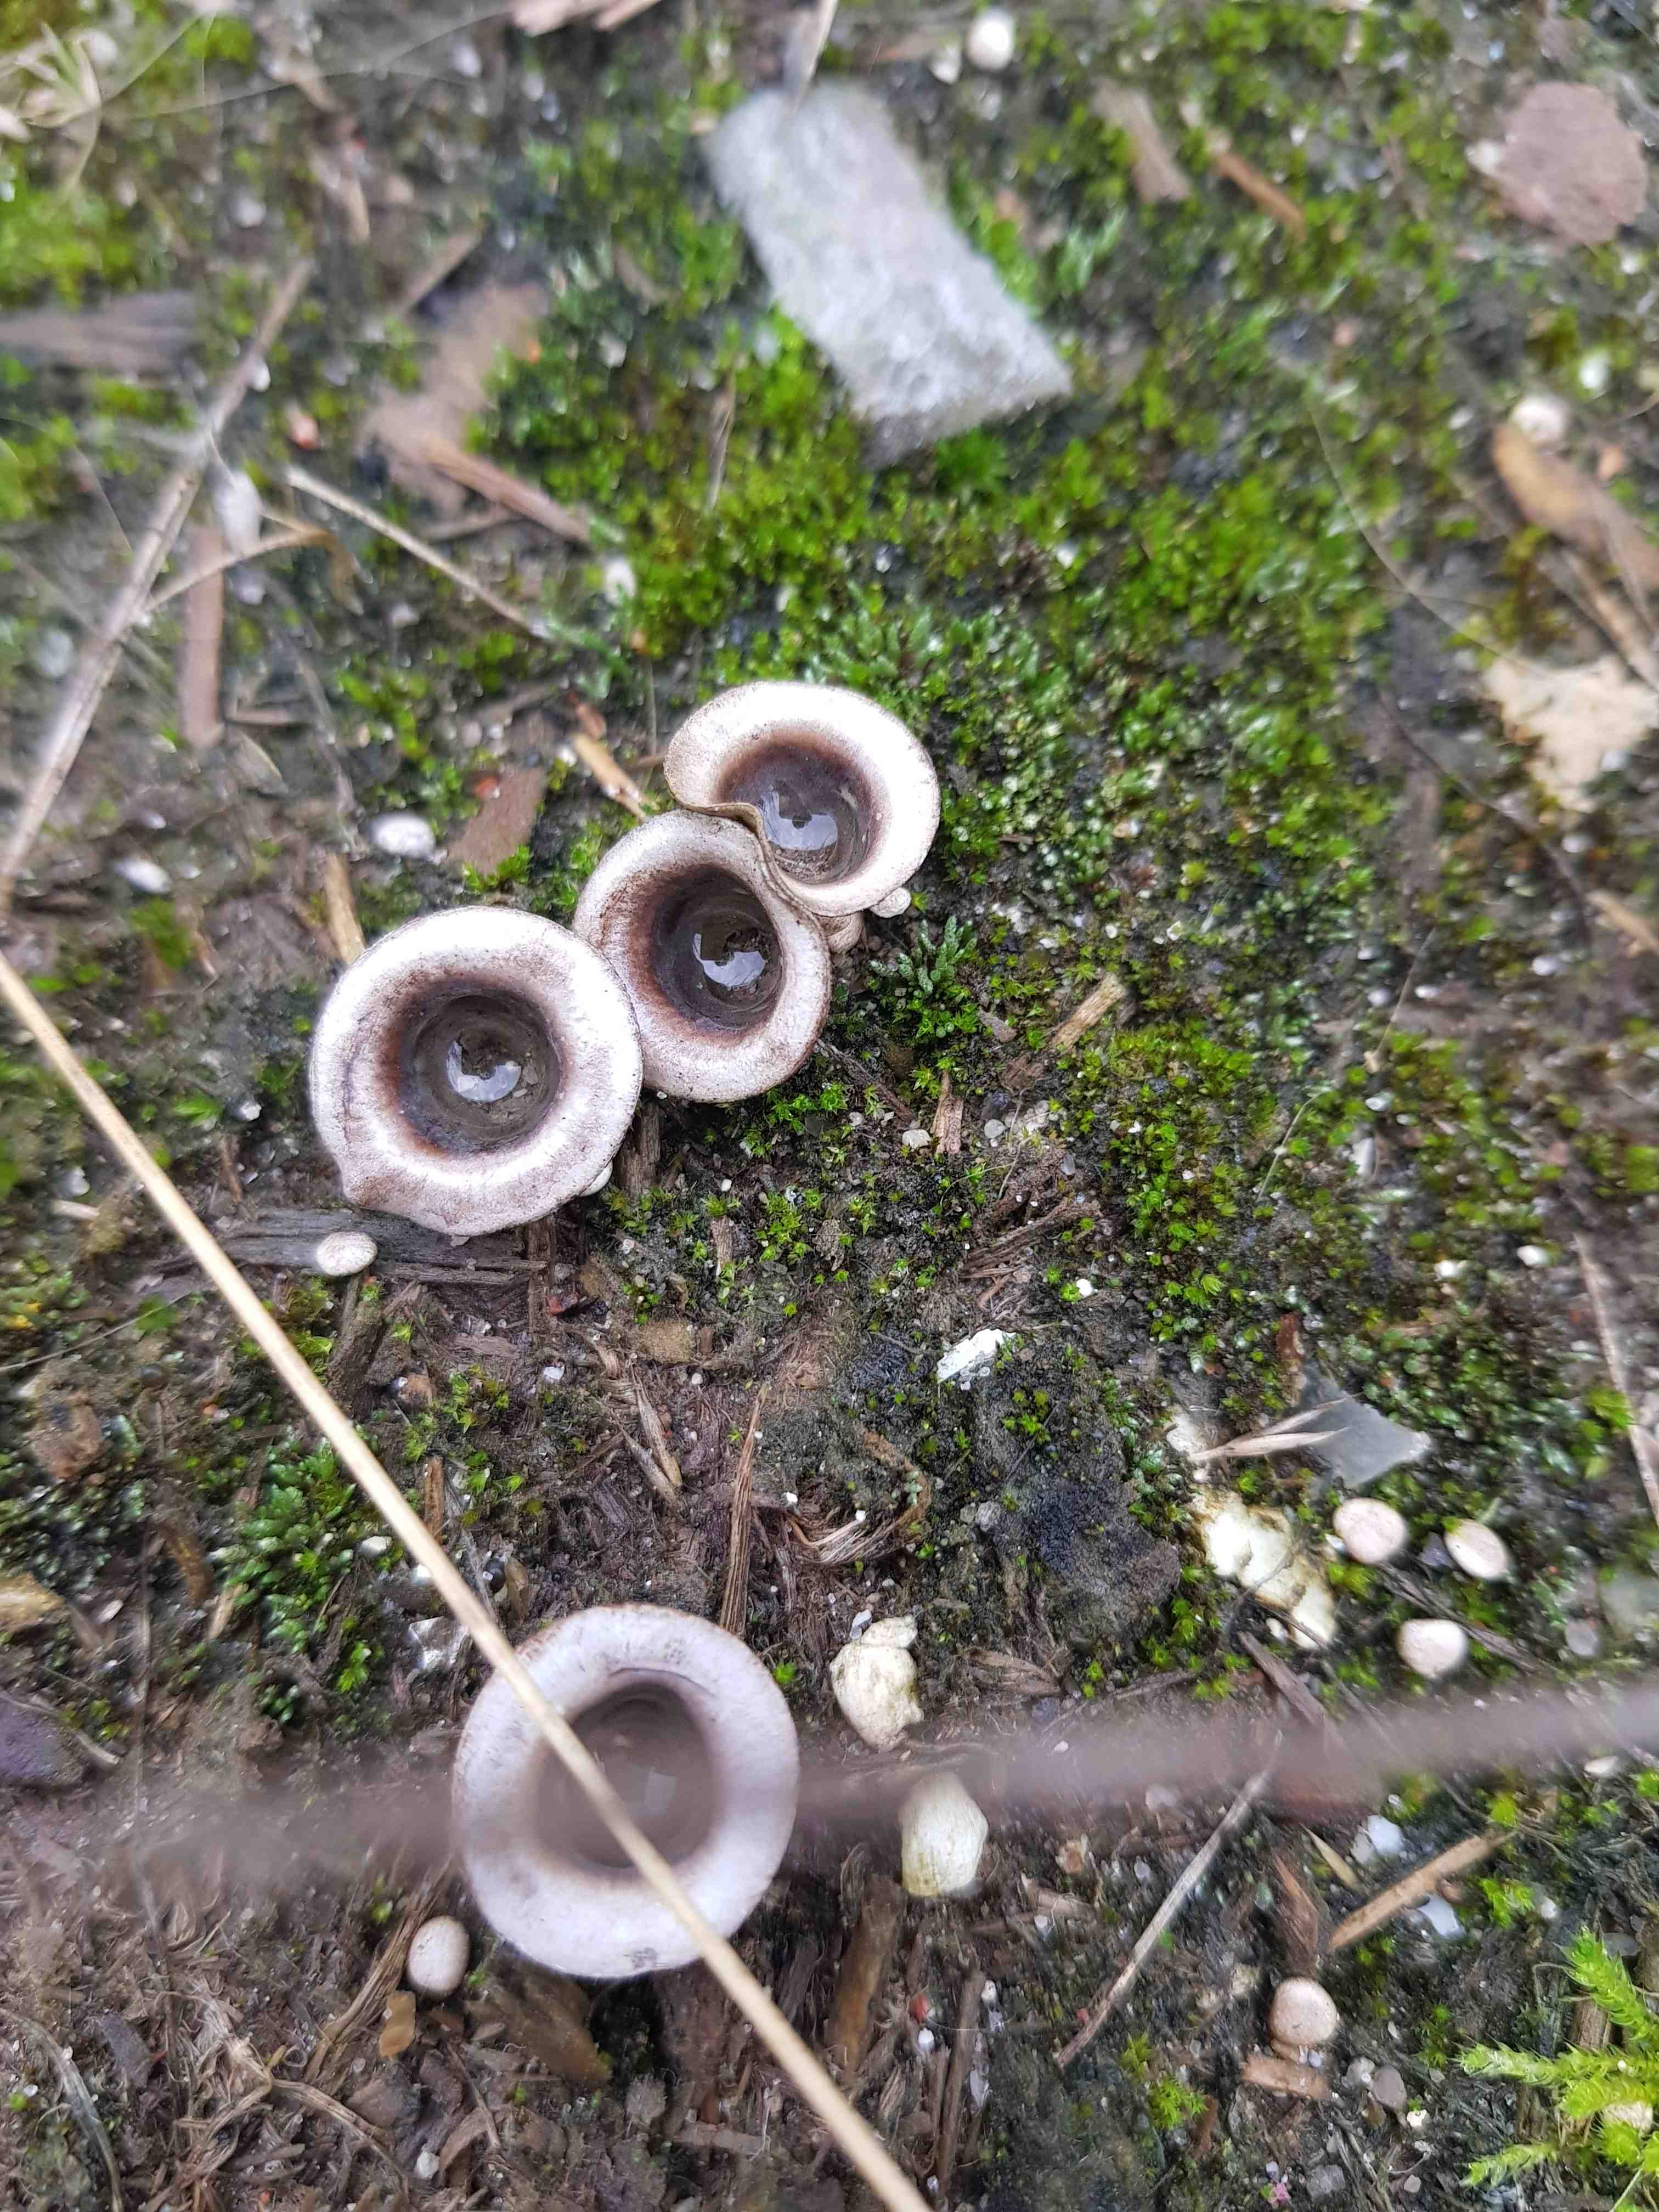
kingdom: Fungi
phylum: Basidiomycota
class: Agaricomycetes
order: Agaricales
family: Agaricaceae
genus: Cyathus
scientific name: Cyathus olla
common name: klokke-redesvamp
